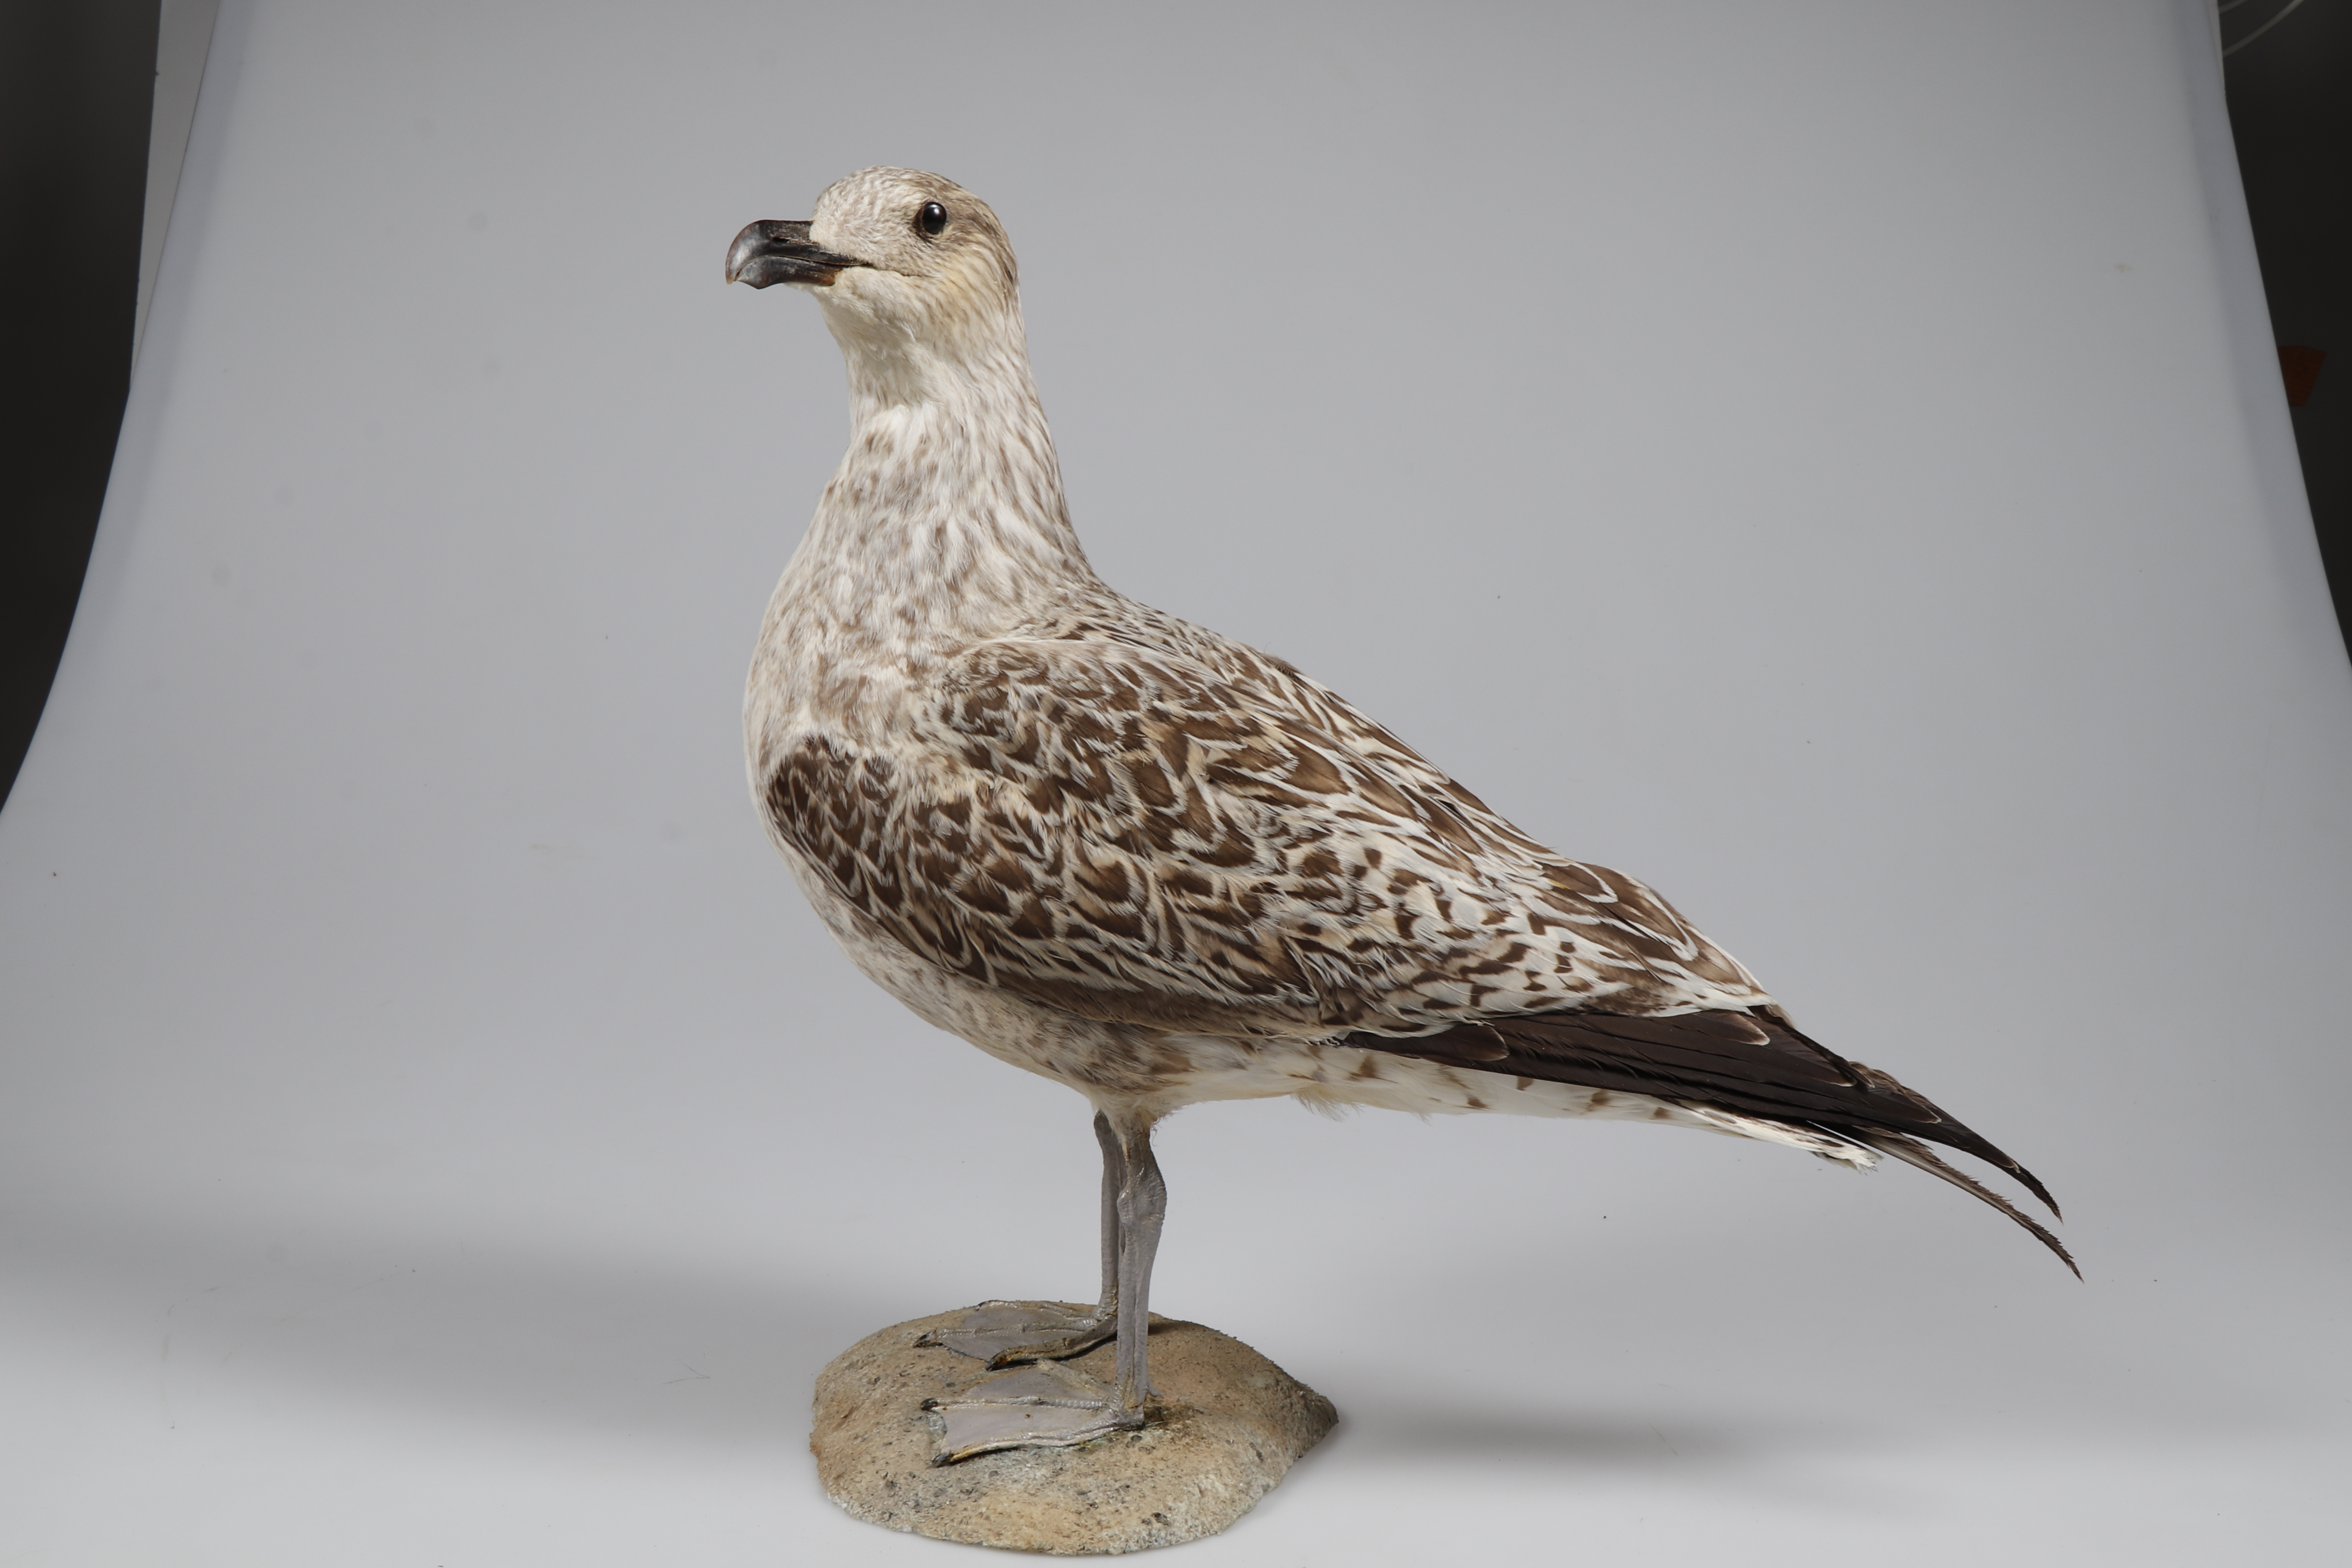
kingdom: Animalia
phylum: Chordata
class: Aves
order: Charadriiformes
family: Laridae
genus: Larus
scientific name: Larus marinus
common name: Great black-backed gull
